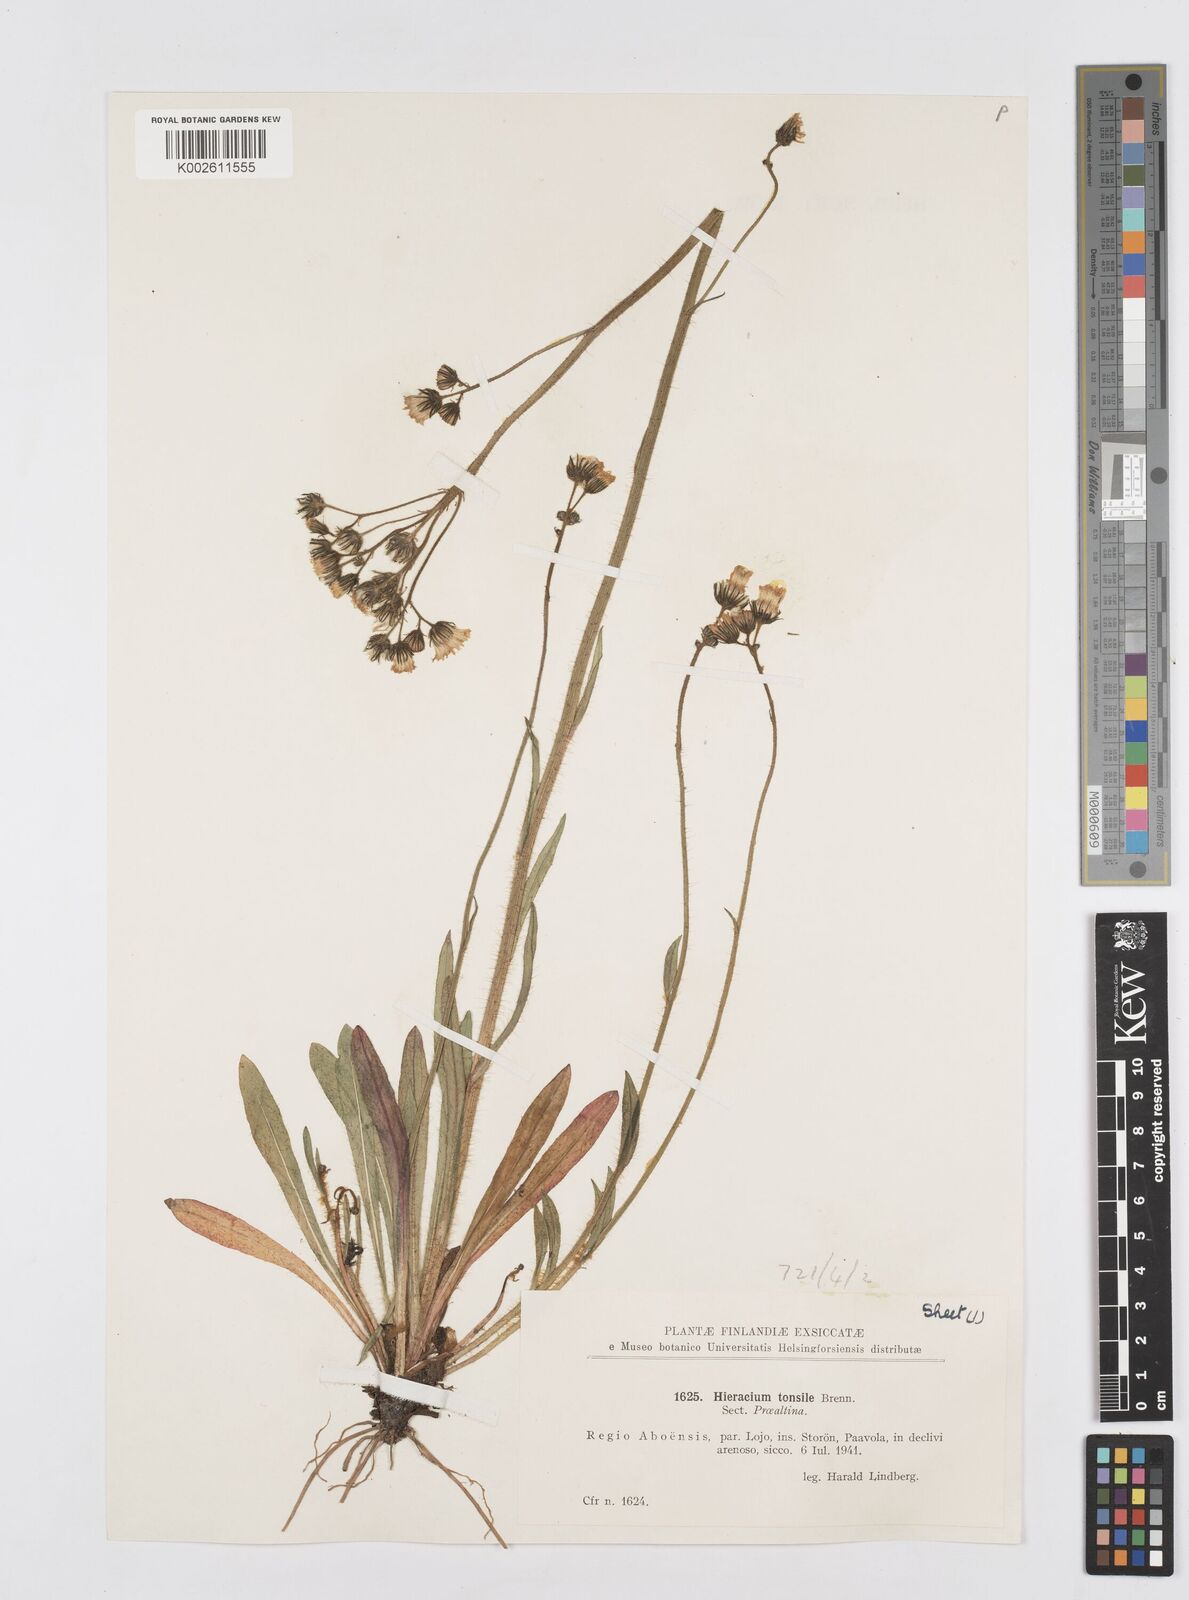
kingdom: Plantae
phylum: Tracheophyta
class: Magnoliopsida
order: Asterales
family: Asteraceae
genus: Pilosella
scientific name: Pilosella erythrochrista
